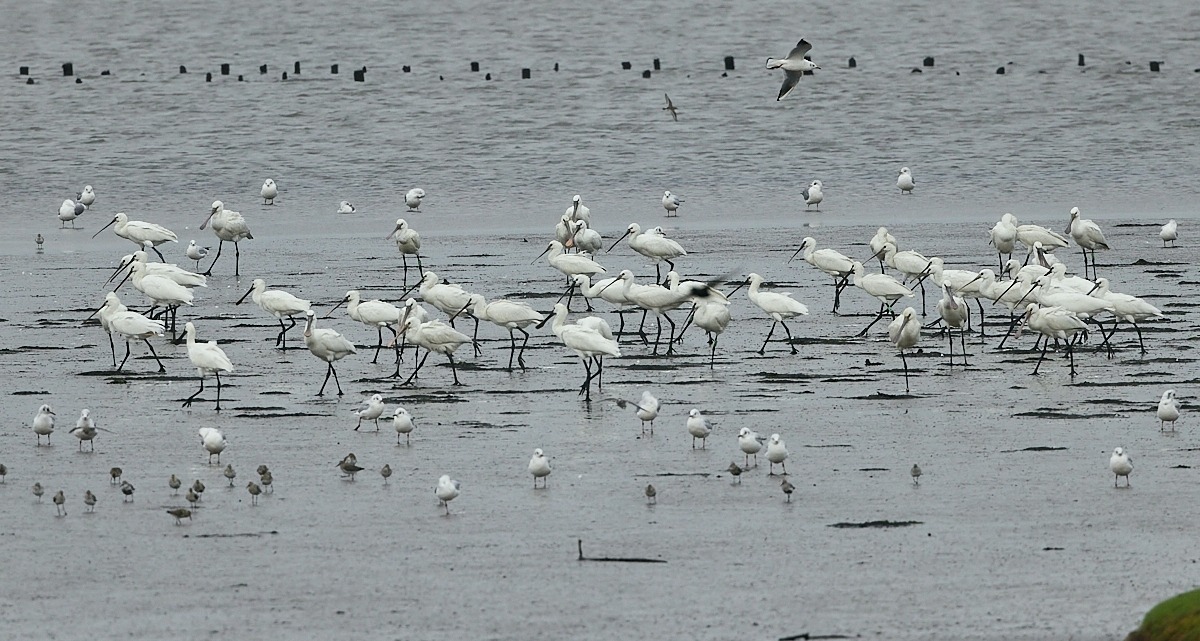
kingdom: Animalia
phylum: Chordata
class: Aves
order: Pelecaniformes
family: Threskiornithidae
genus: Platalea
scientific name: Platalea leucorodia
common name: Skestork
